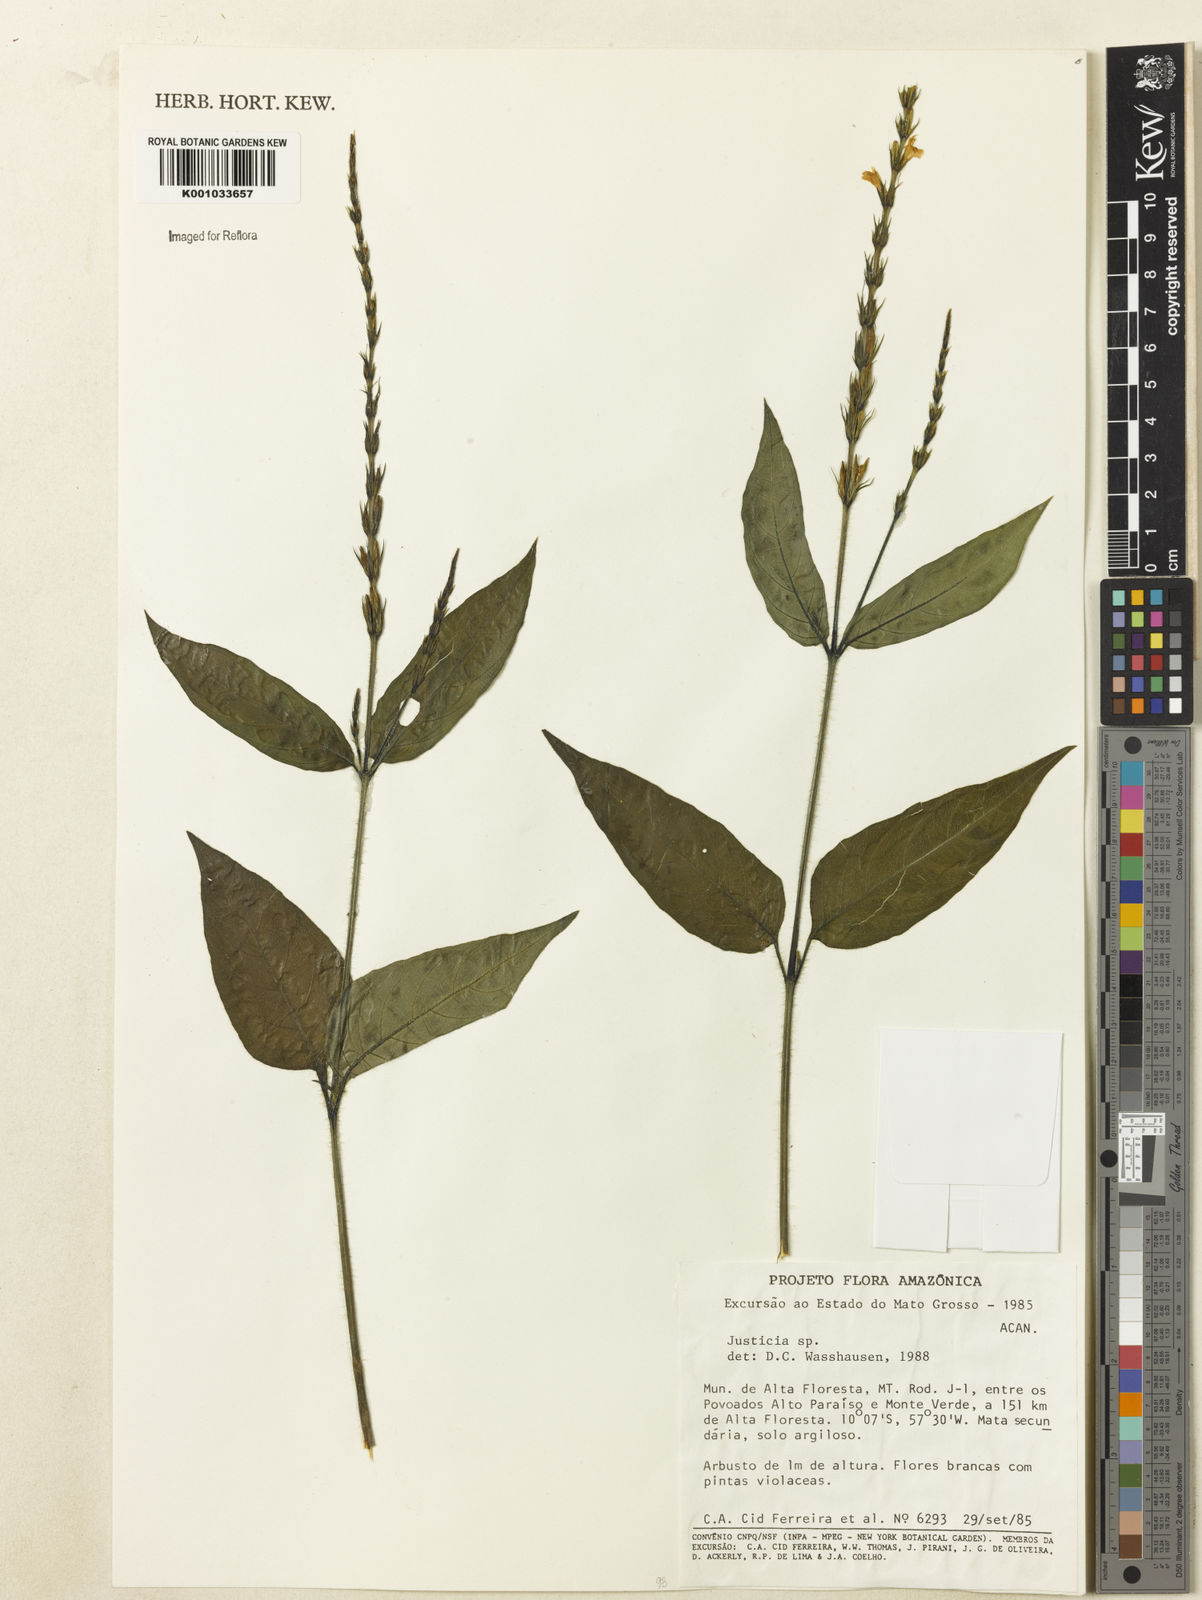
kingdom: Plantae
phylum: Tracheophyta
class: Magnoliopsida
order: Lamiales
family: Acanthaceae
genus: Justicia
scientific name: Justicia
